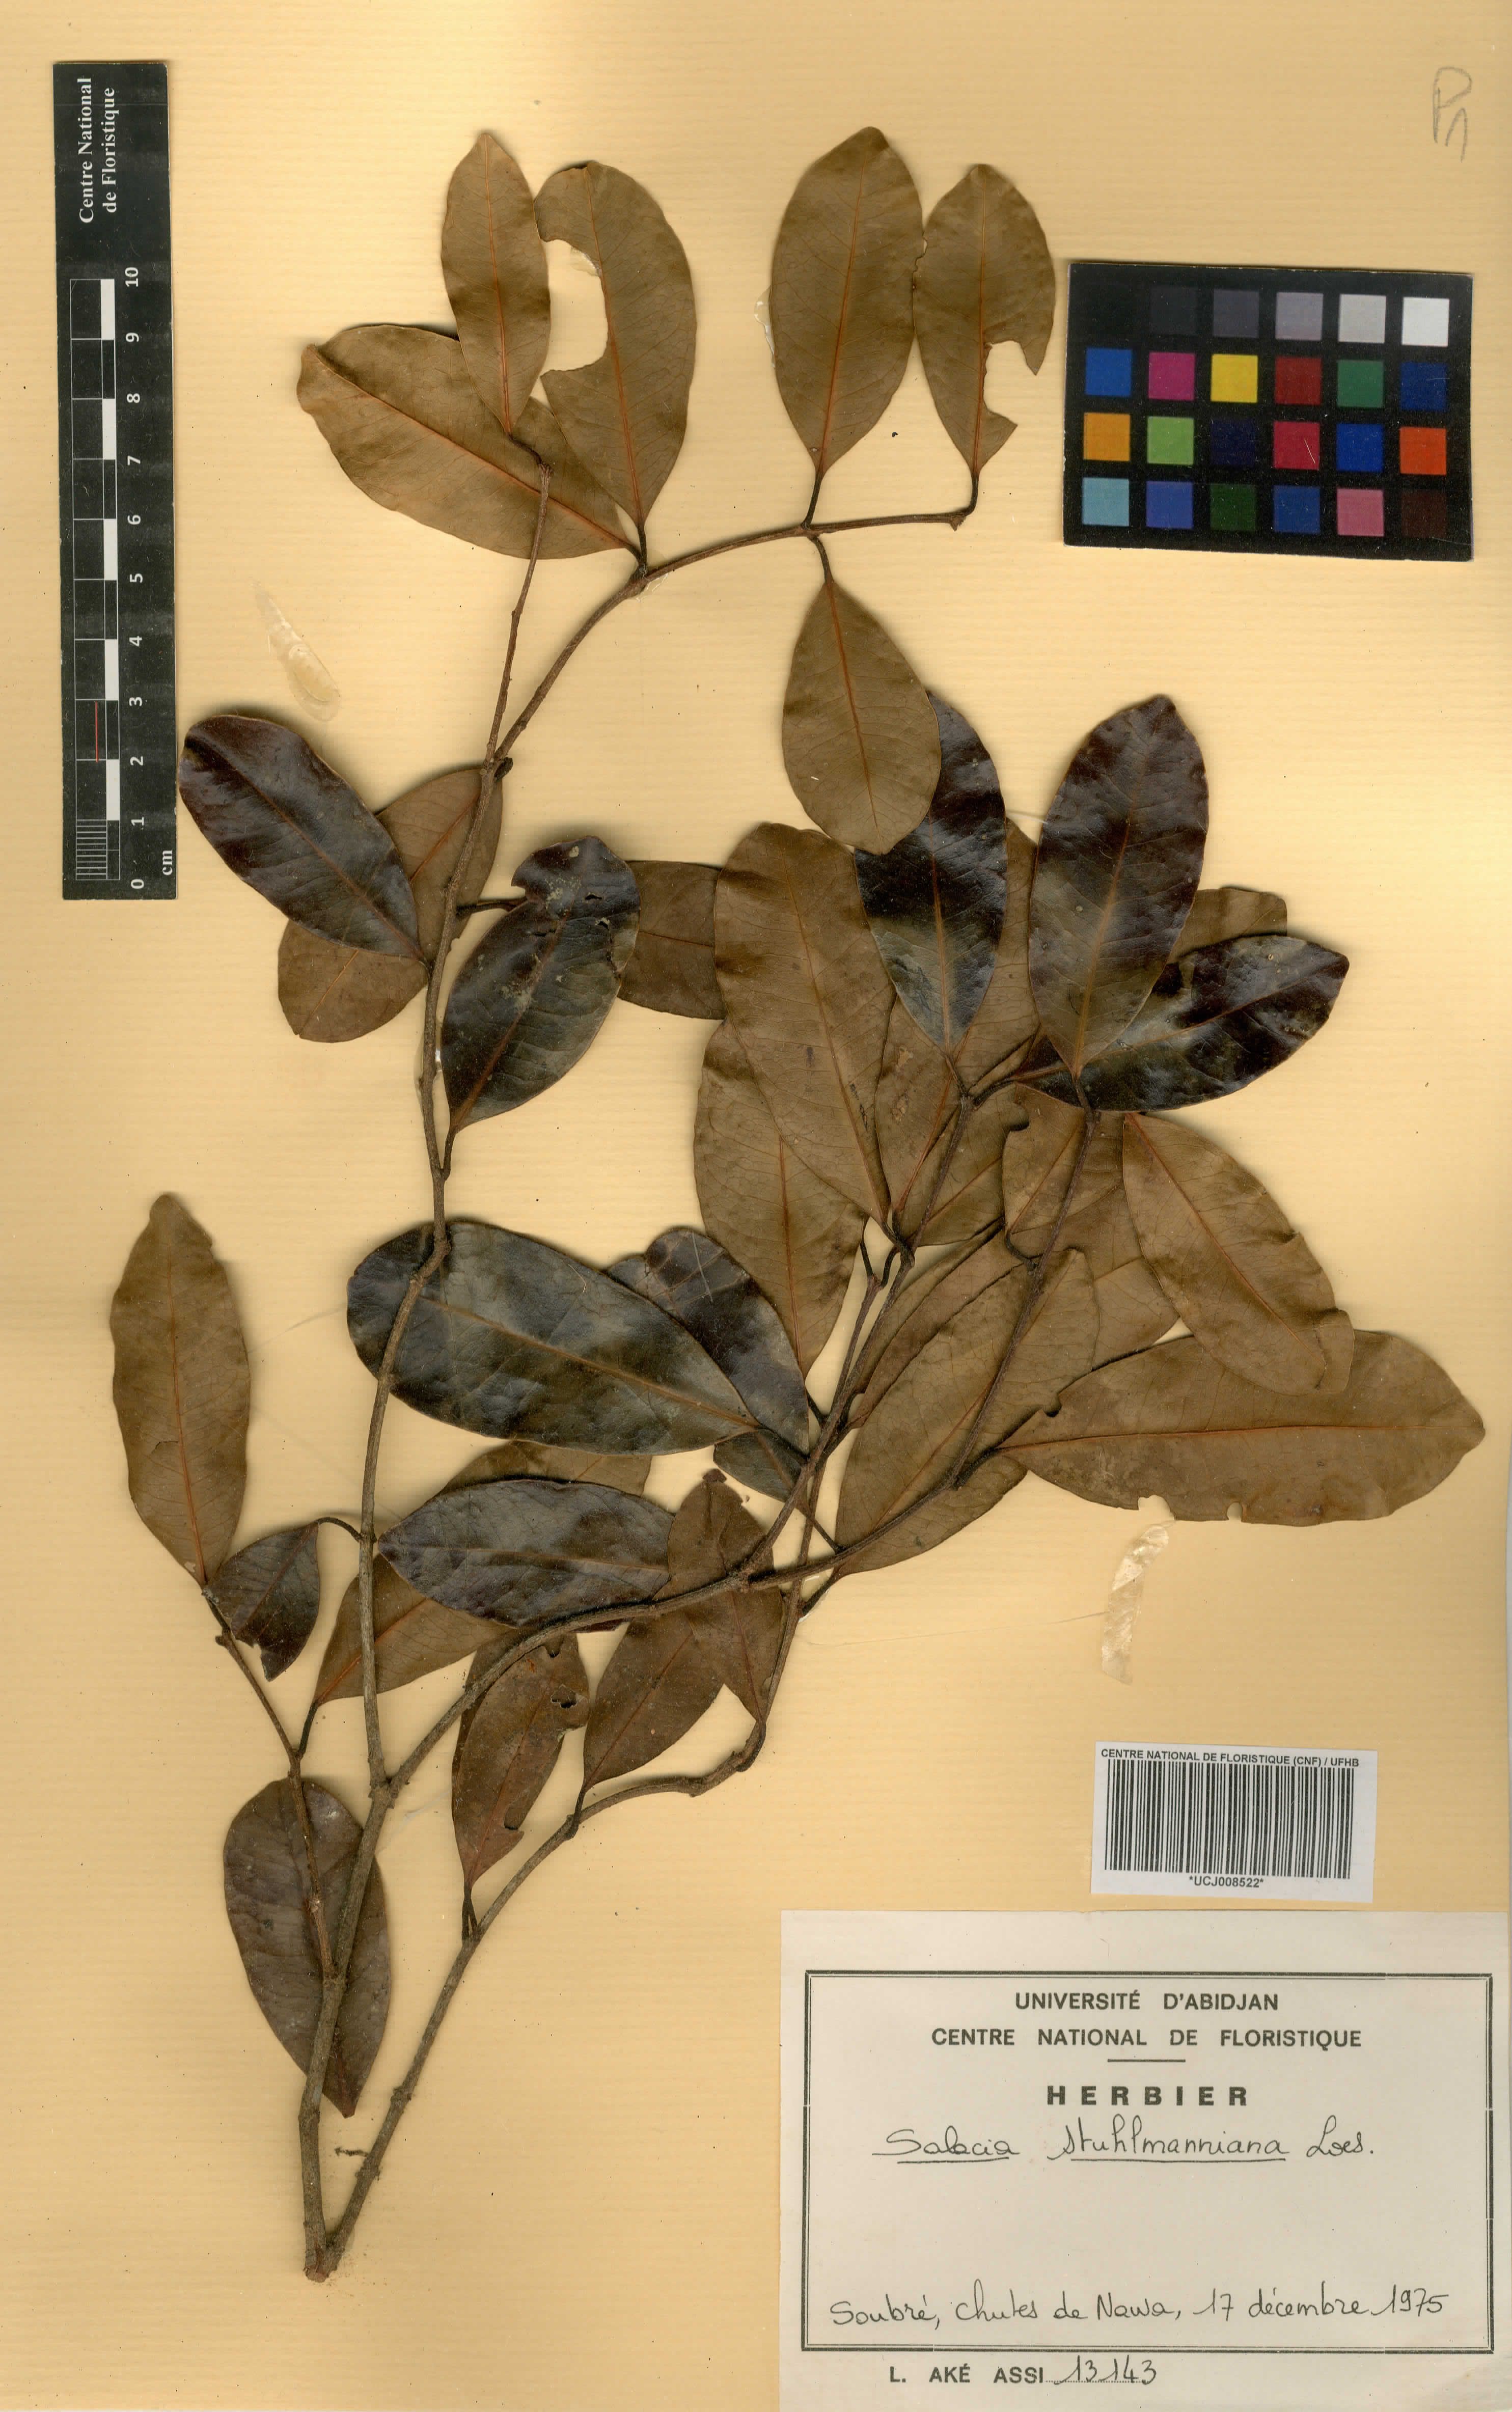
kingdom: Plantae
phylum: Tracheophyta
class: Magnoliopsida
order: Celastrales
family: Celastraceae
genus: Salacia
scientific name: Salacia stuhlmanniana
